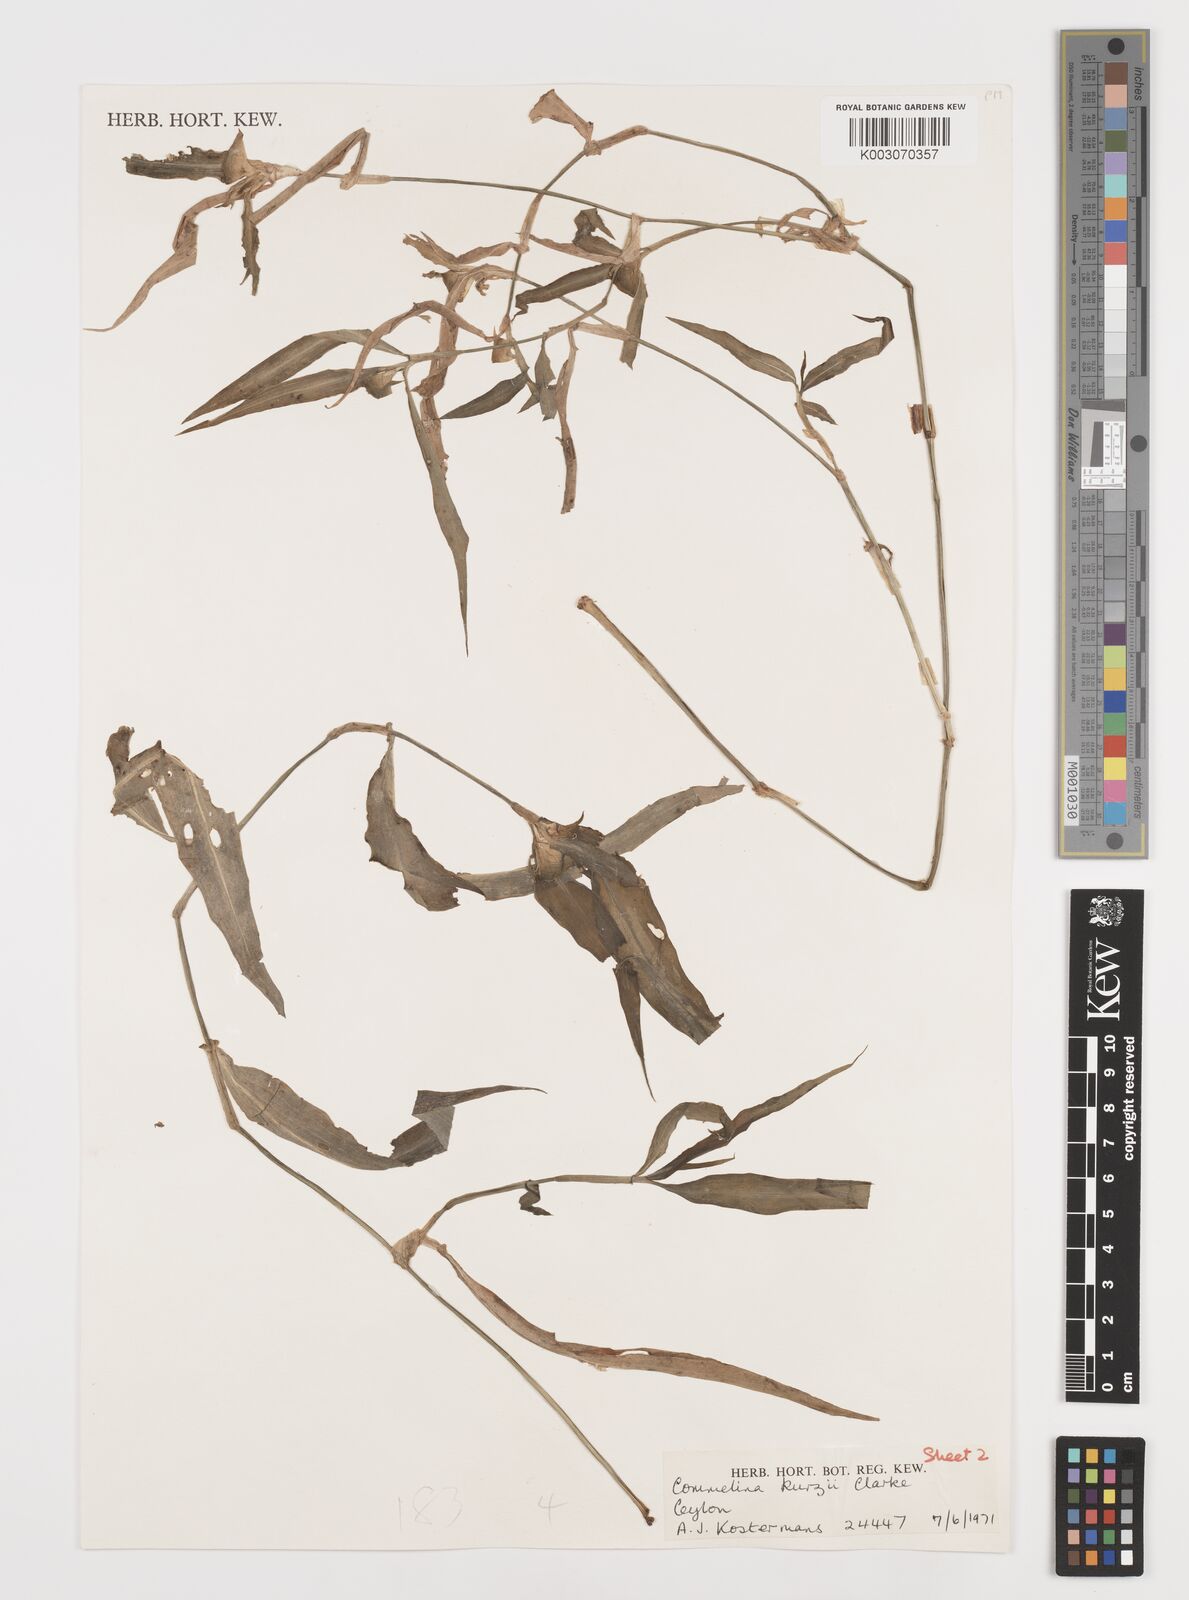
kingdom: Plantae
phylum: Tracheophyta
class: Liliopsida
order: Commelinales
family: Commelinaceae
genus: Commelina
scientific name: Commelina undulata
